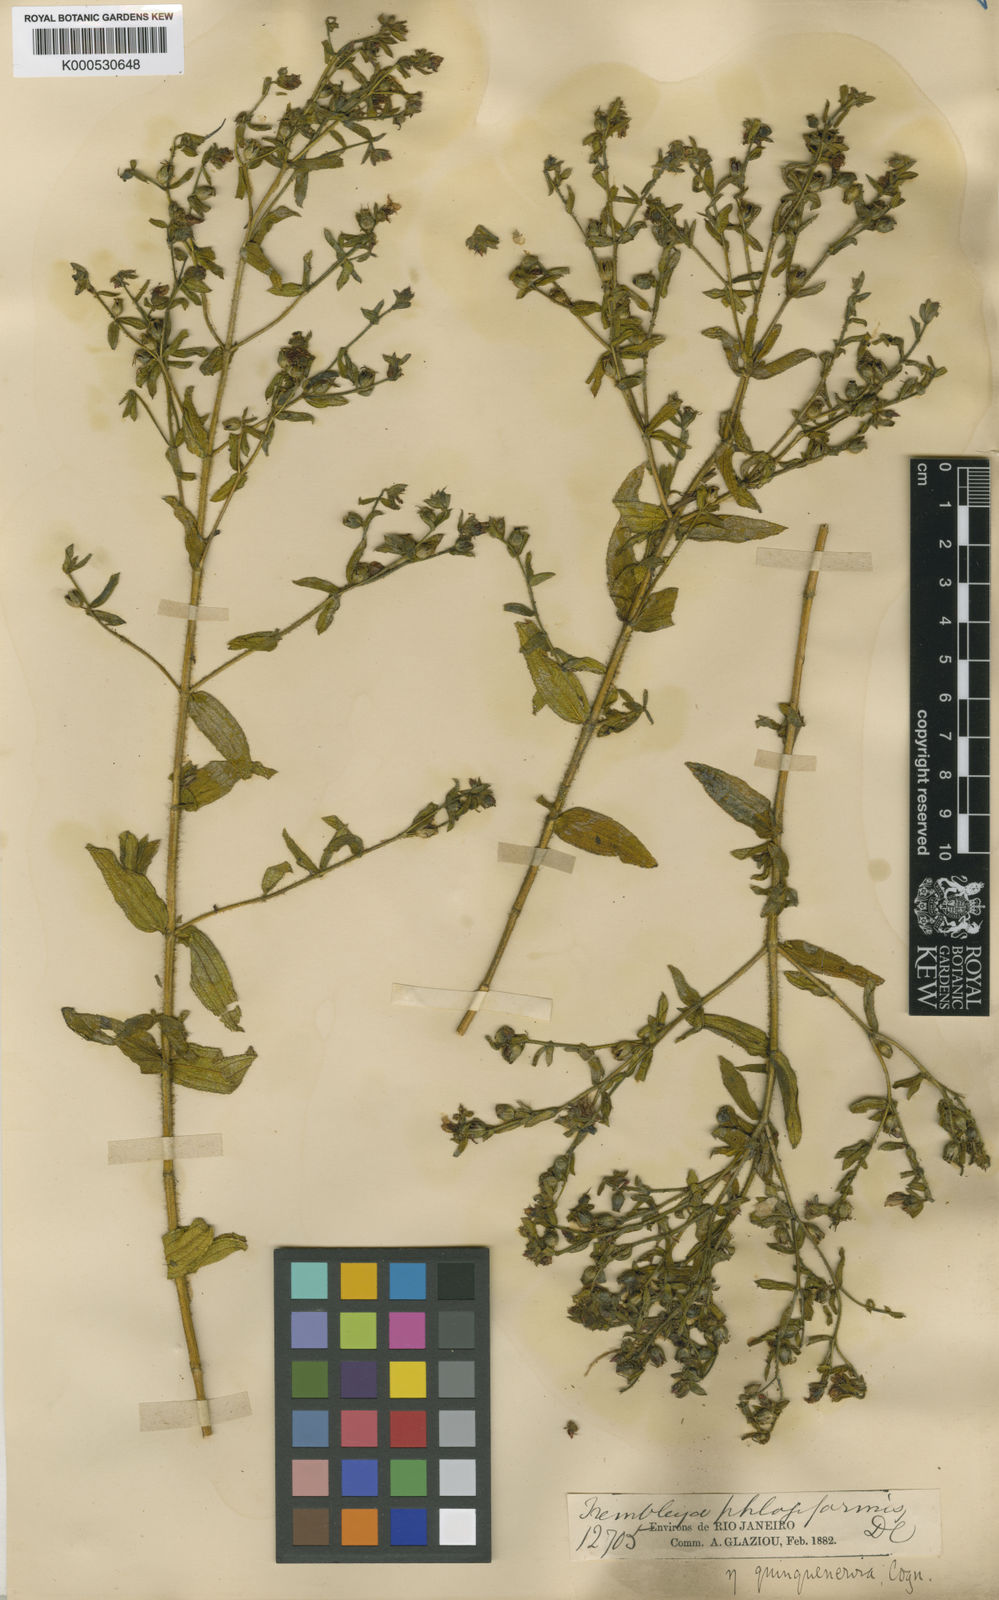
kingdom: Plantae
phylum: Tracheophyta
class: Magnoliopsida
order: Myrtales
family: Melastomataceae
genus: Microlicia
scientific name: Microlicia phlogiformis
